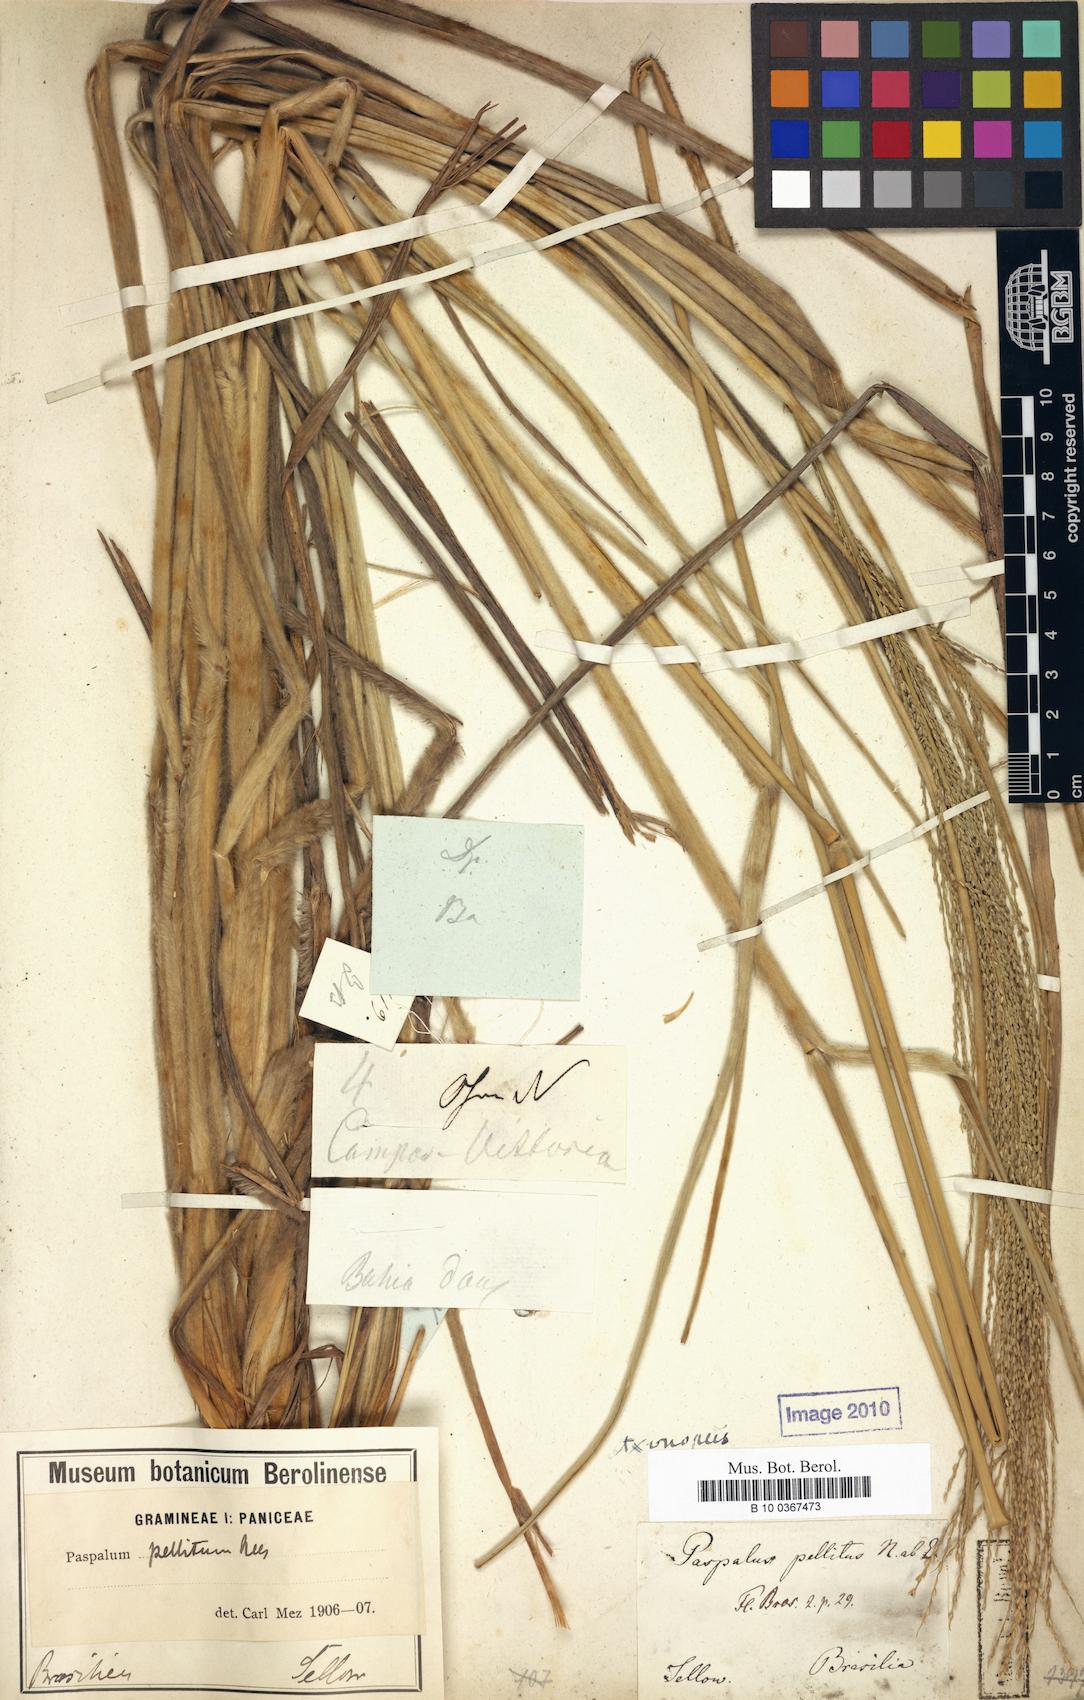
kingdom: Plantae
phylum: Tracheophyta
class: Liliopsida
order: Poales
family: Poaceae
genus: Axonopus
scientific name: Axonopus siccus
